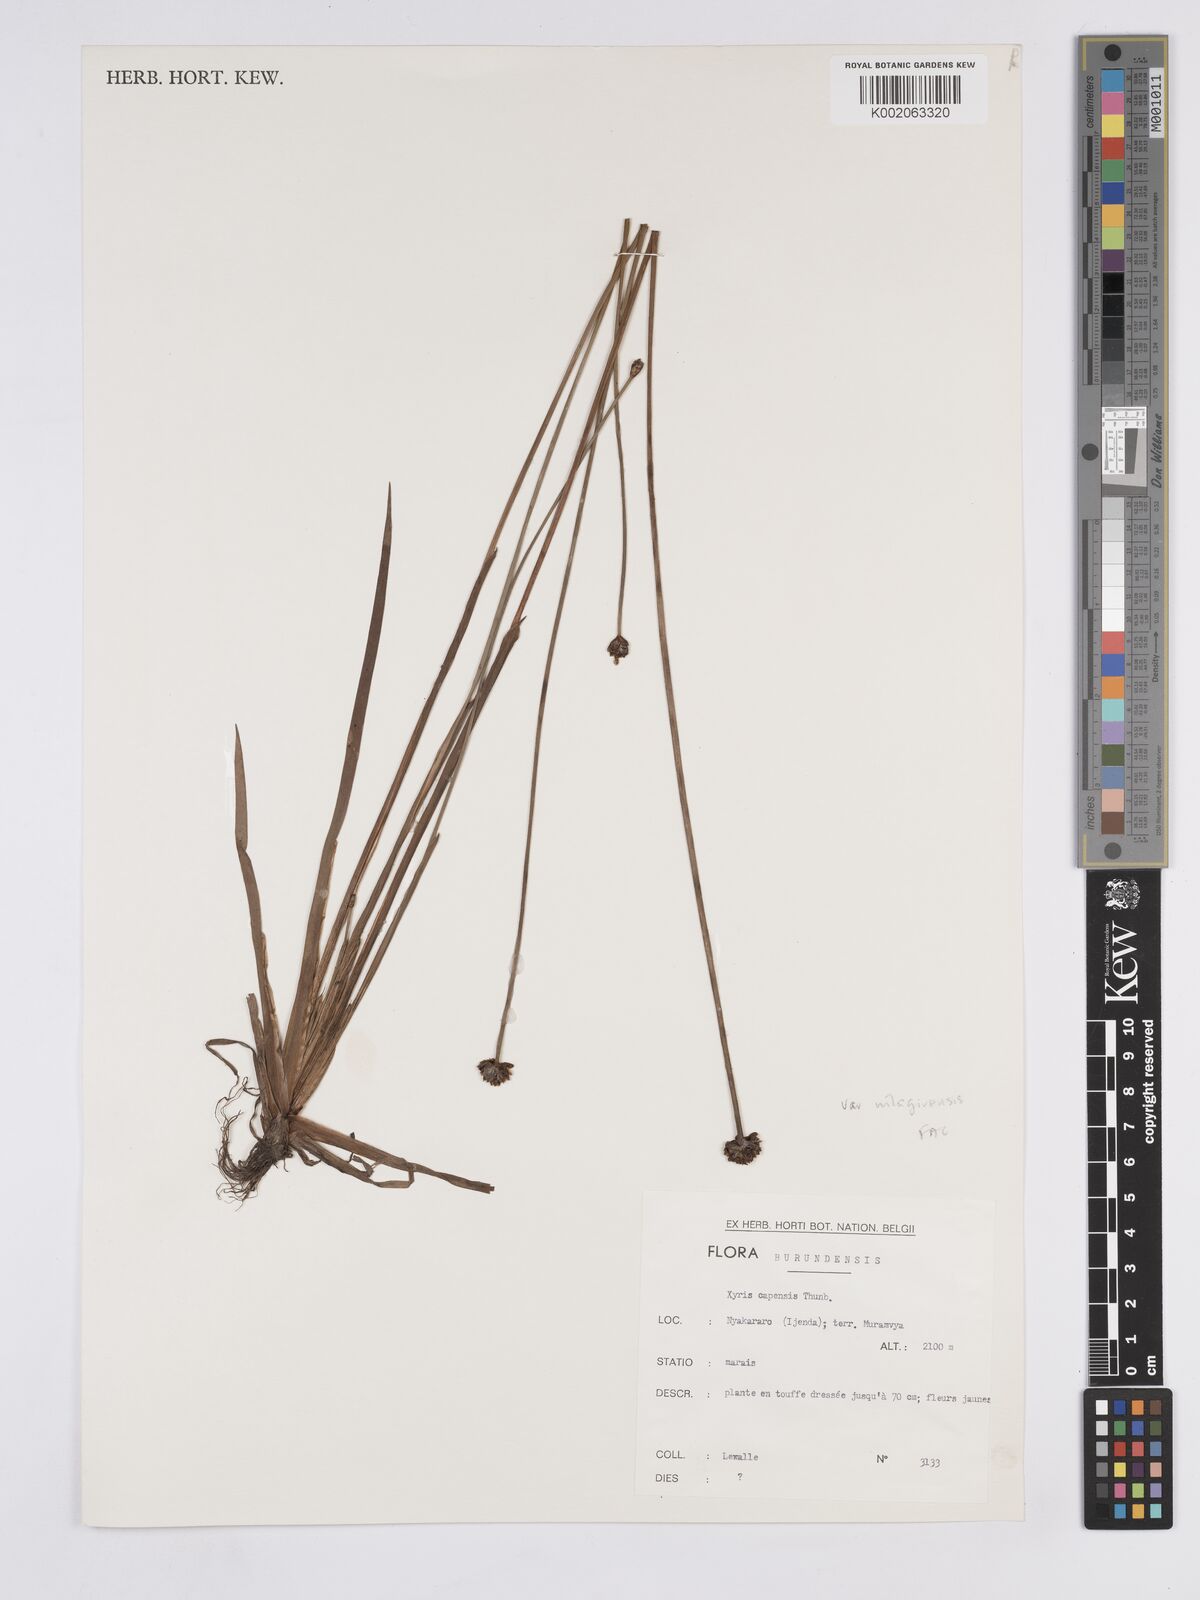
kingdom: Plantae
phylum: Tracheophyta
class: Liliopsida
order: Poales
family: Xyridaceae
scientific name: Xyridaceae
